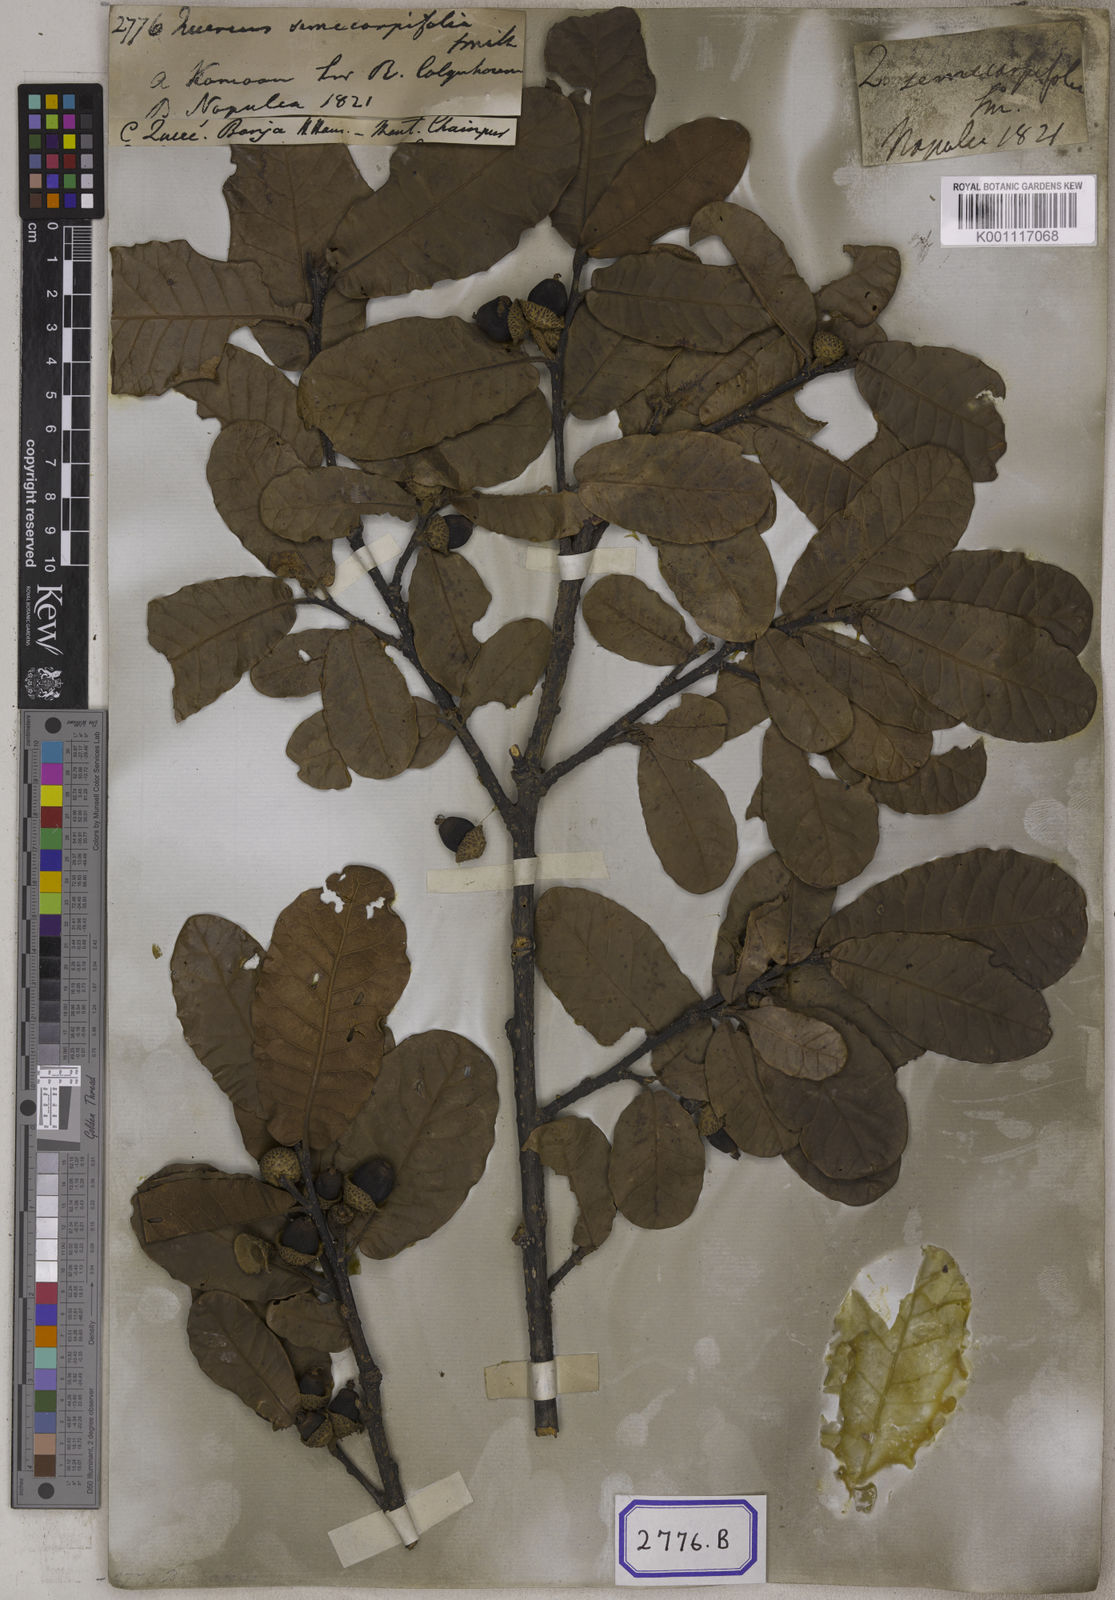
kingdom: Plantae
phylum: Tracheophyta
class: Magnoliopsida
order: Fagales
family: Fagaceae
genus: Quercus
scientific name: Quercus semecarpifolia
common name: Brown oak
